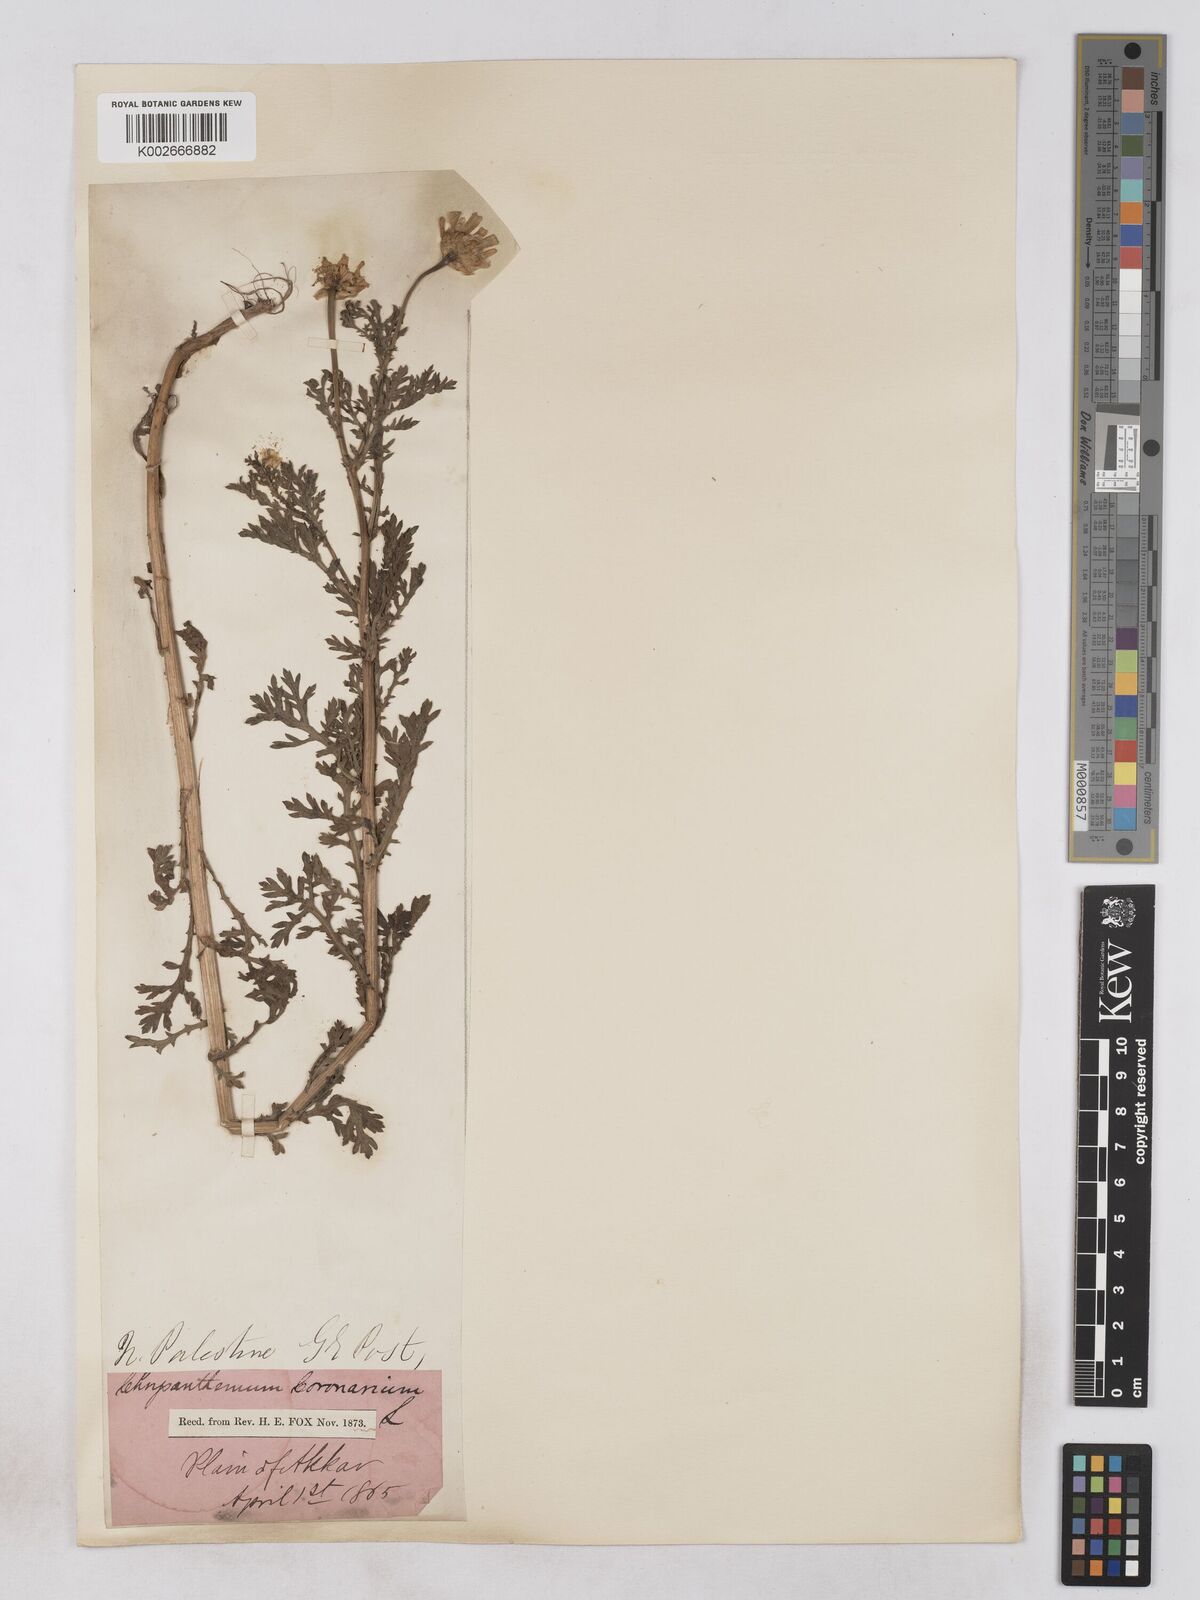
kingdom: Plantae
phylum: Tracheophyta
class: Magnoliopsida
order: Asterales
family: Asteraceae
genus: Glebionis
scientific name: Glebionis coronaria
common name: Crowndaisy
